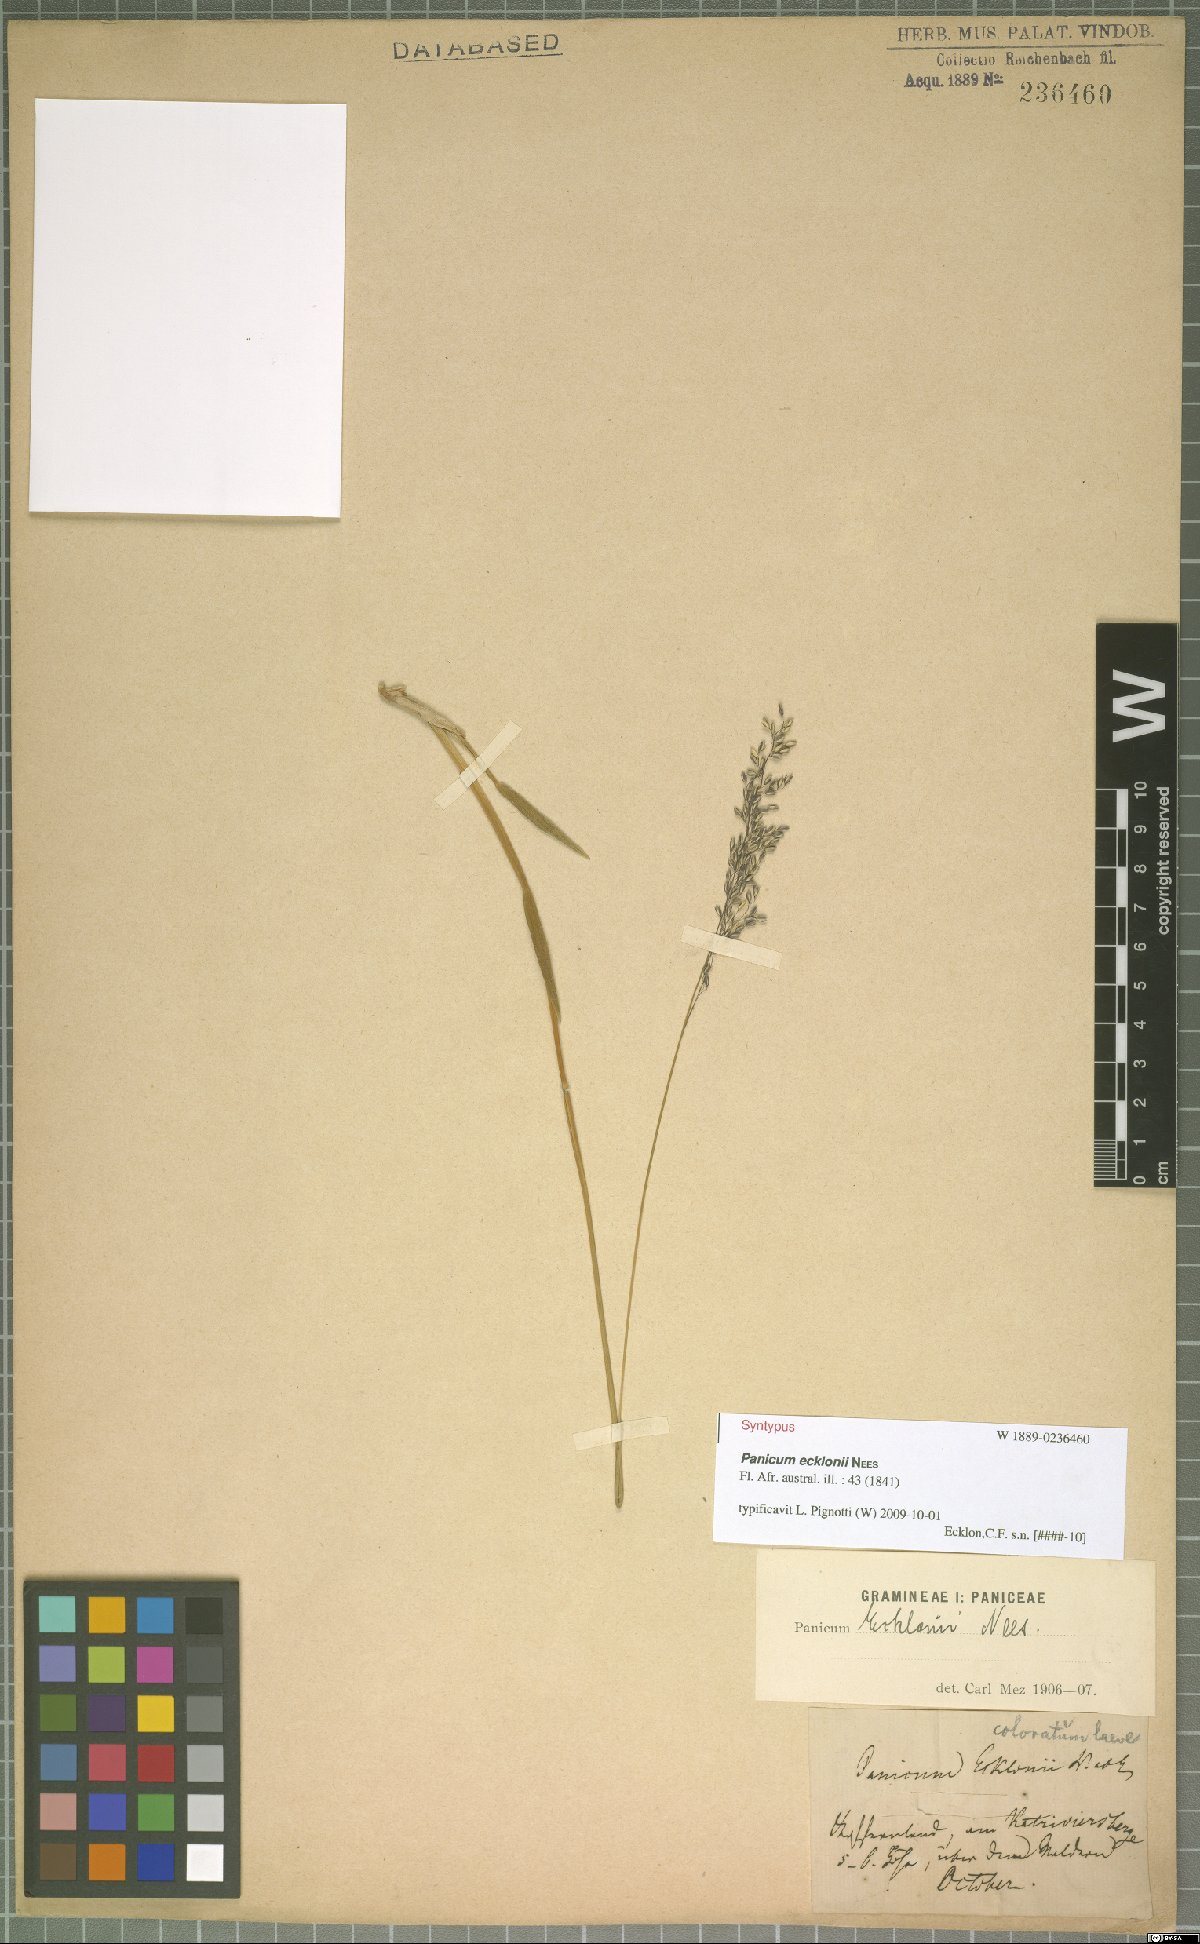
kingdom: Plantae
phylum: Tracheophyta
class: Liliopsida
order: Poales
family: Poaceae
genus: Adenochloa
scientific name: Adenochloa ecklonii
